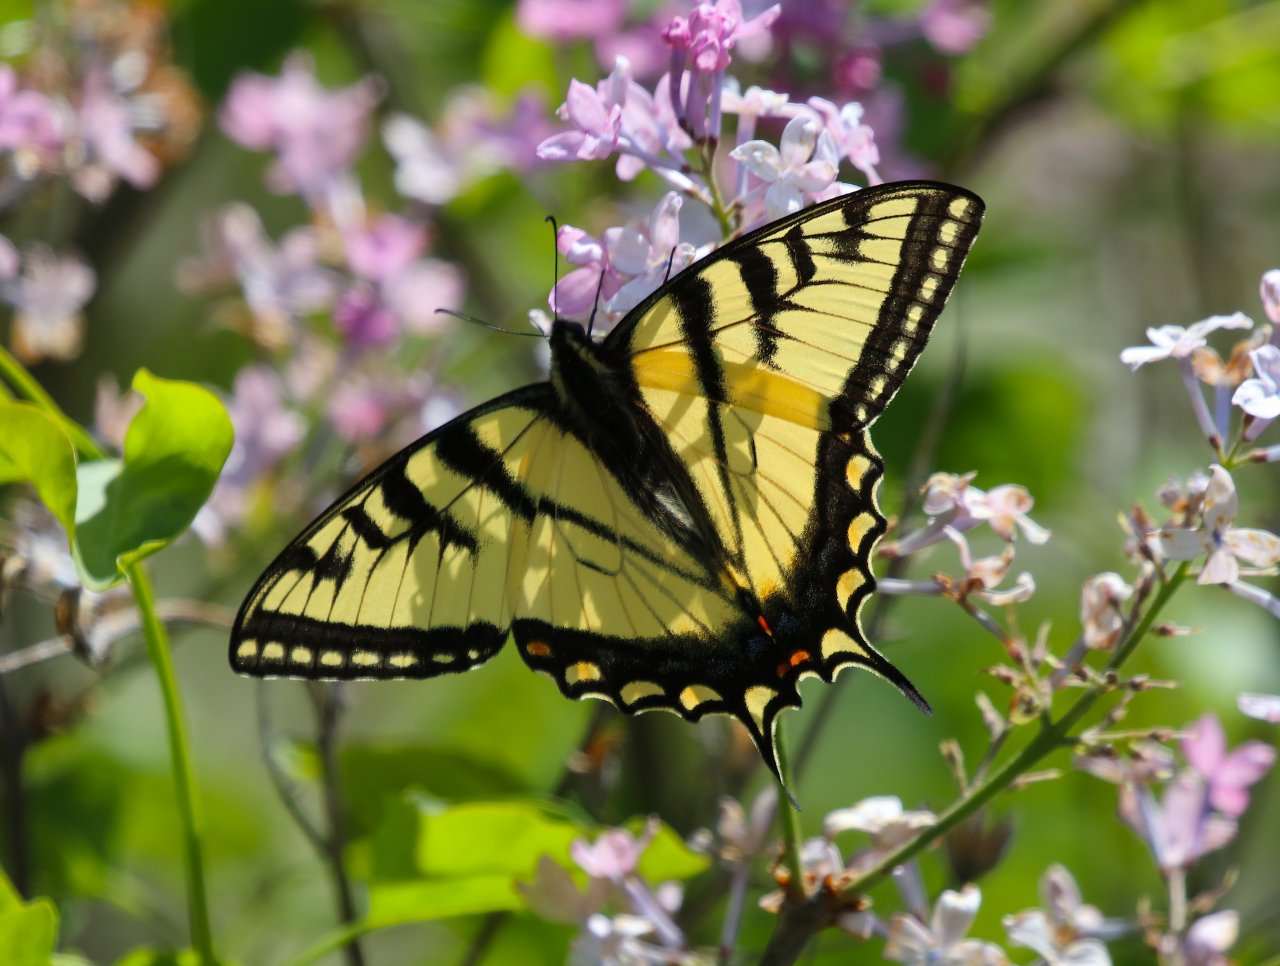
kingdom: Animalia
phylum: Arthropoda
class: Insecta
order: Lepidoptera
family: Papilionidae
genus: Pterourus
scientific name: Pterourus glaucus
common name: Eastern Tiger Swallowtail
